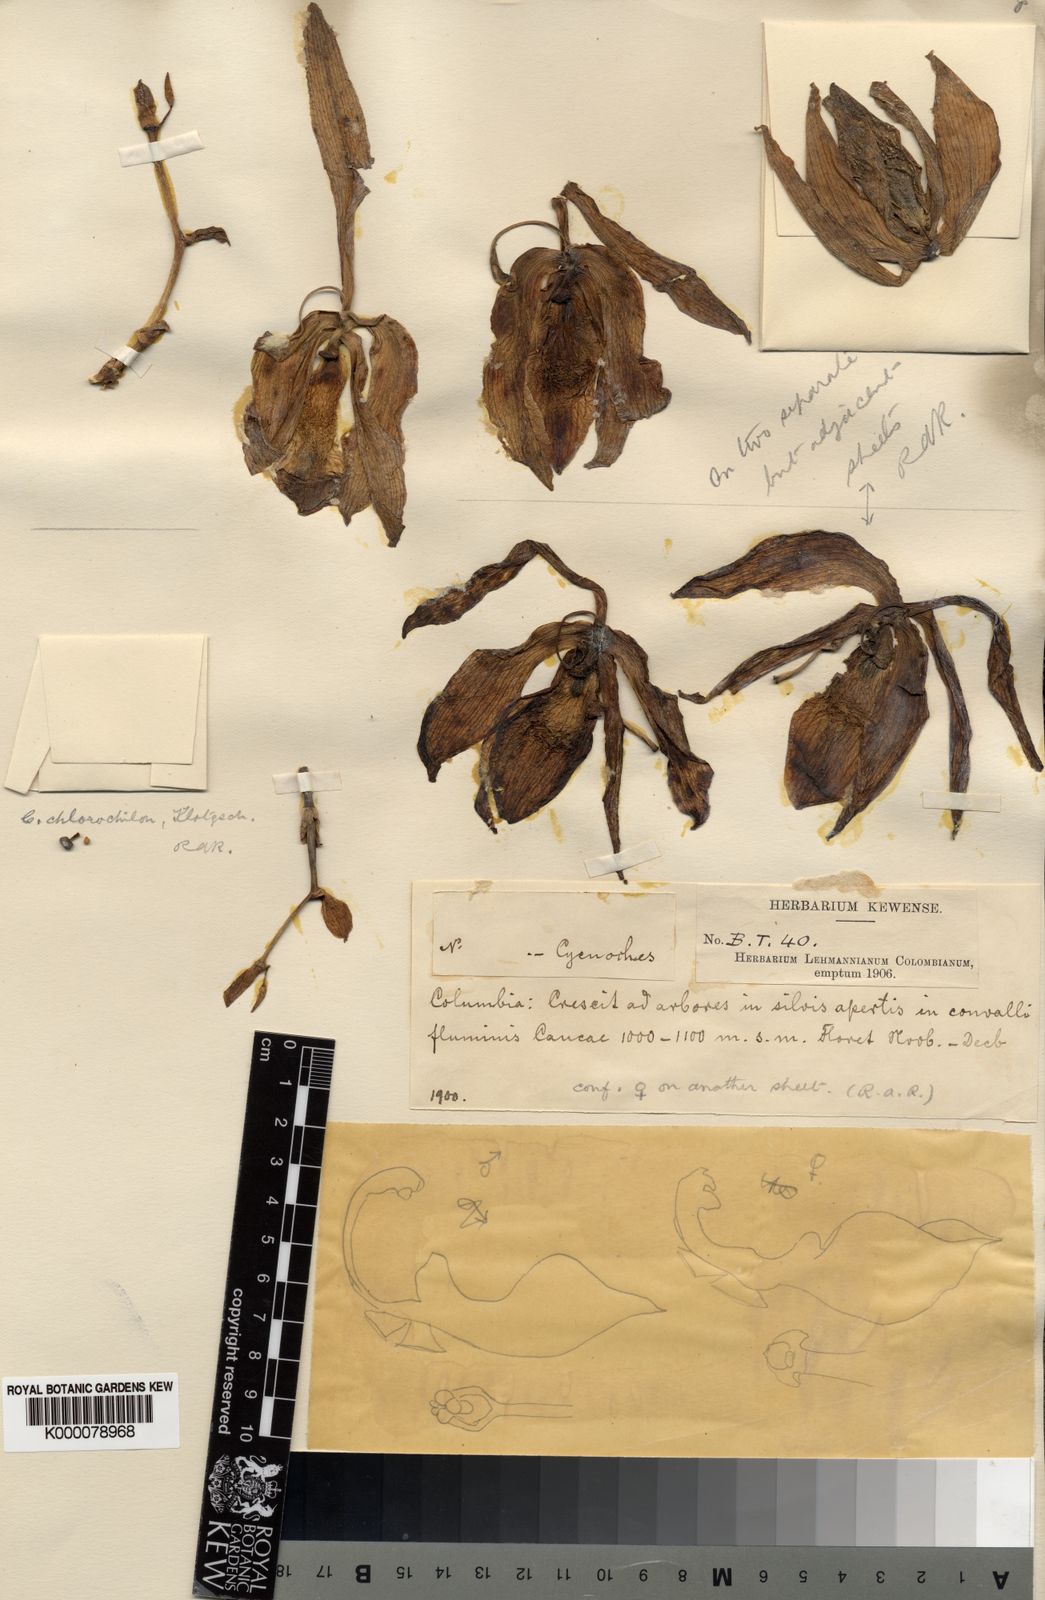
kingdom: Plantae
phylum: Tracheophyta
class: Liliopsida
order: Asparagales
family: Orchidaceae
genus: Cycnoches
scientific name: Cycnoches
